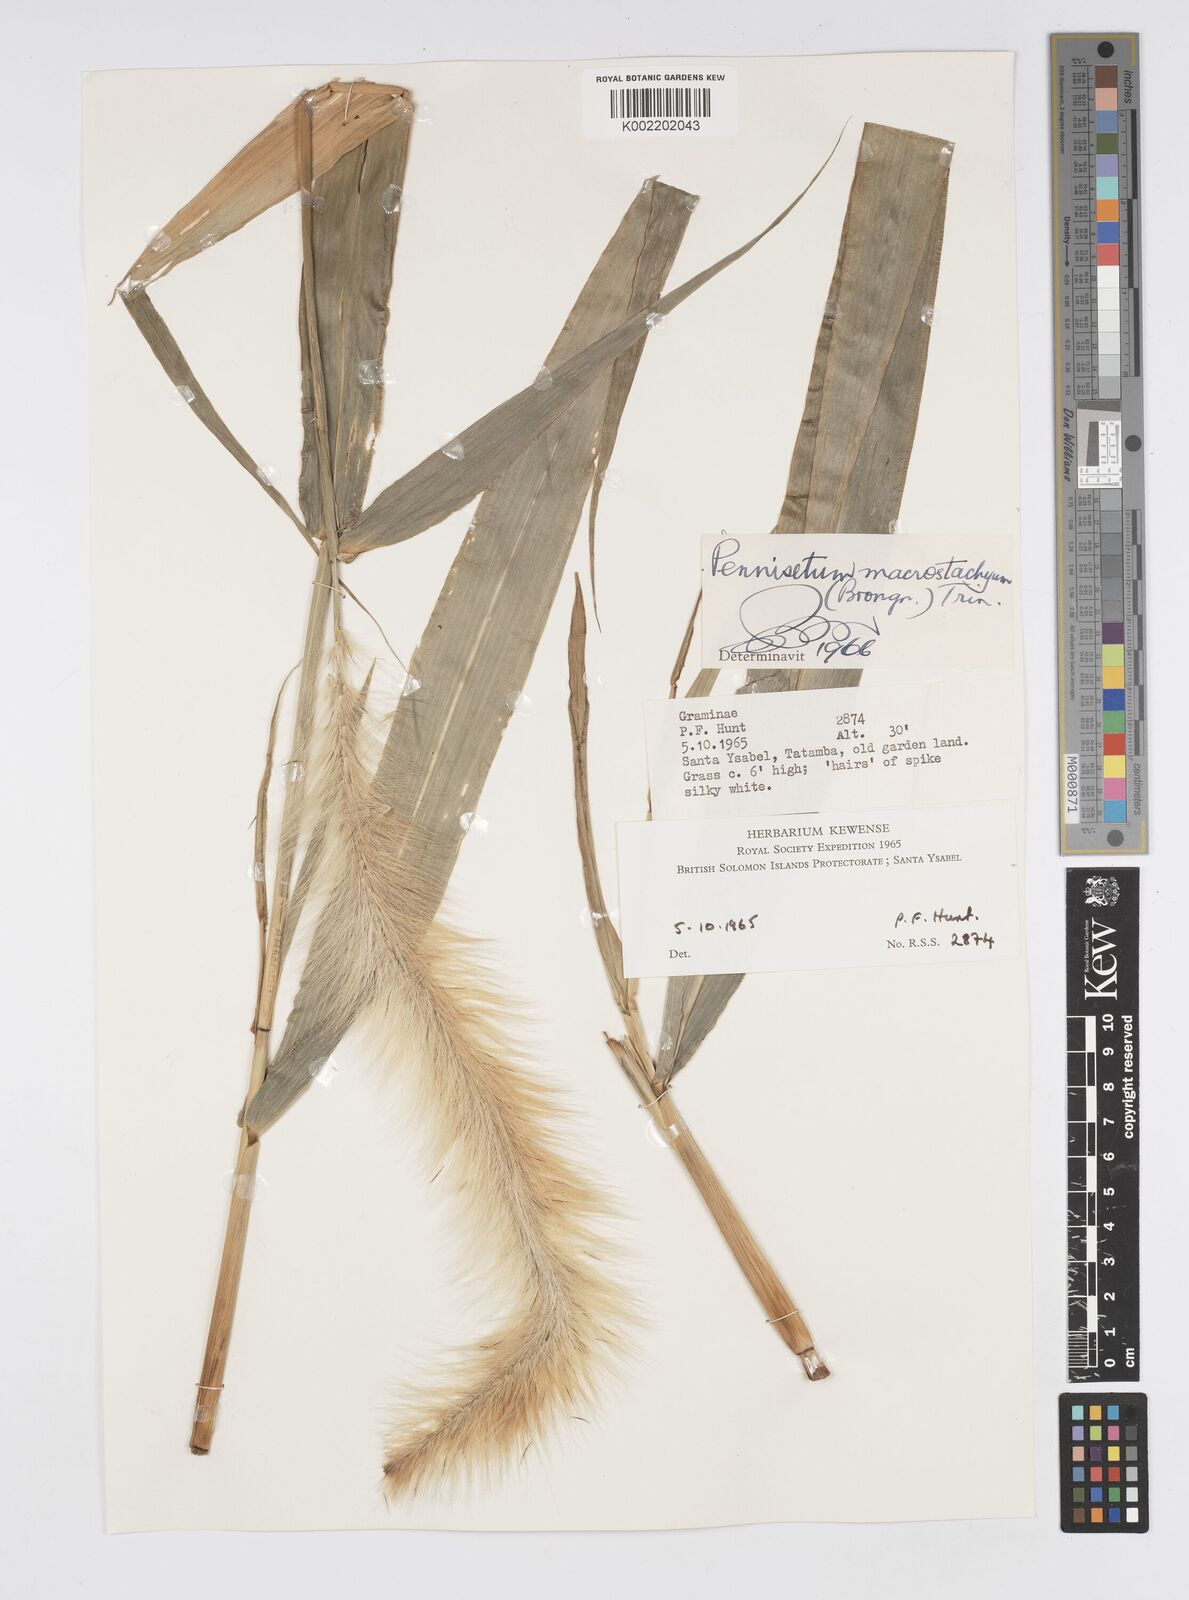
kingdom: Plantae
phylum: Tracheophyta
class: Liliopsida
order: Poales
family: Poaceae
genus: Cenchrus
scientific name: Cenchrus purpureus
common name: Elephant grass
